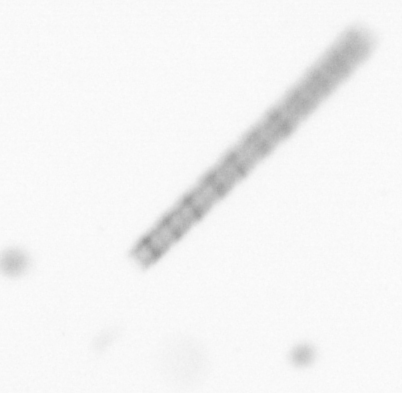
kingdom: Chromista
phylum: Ochrophyta
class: Bacillariophyceae
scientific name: Bacillariophyceae
